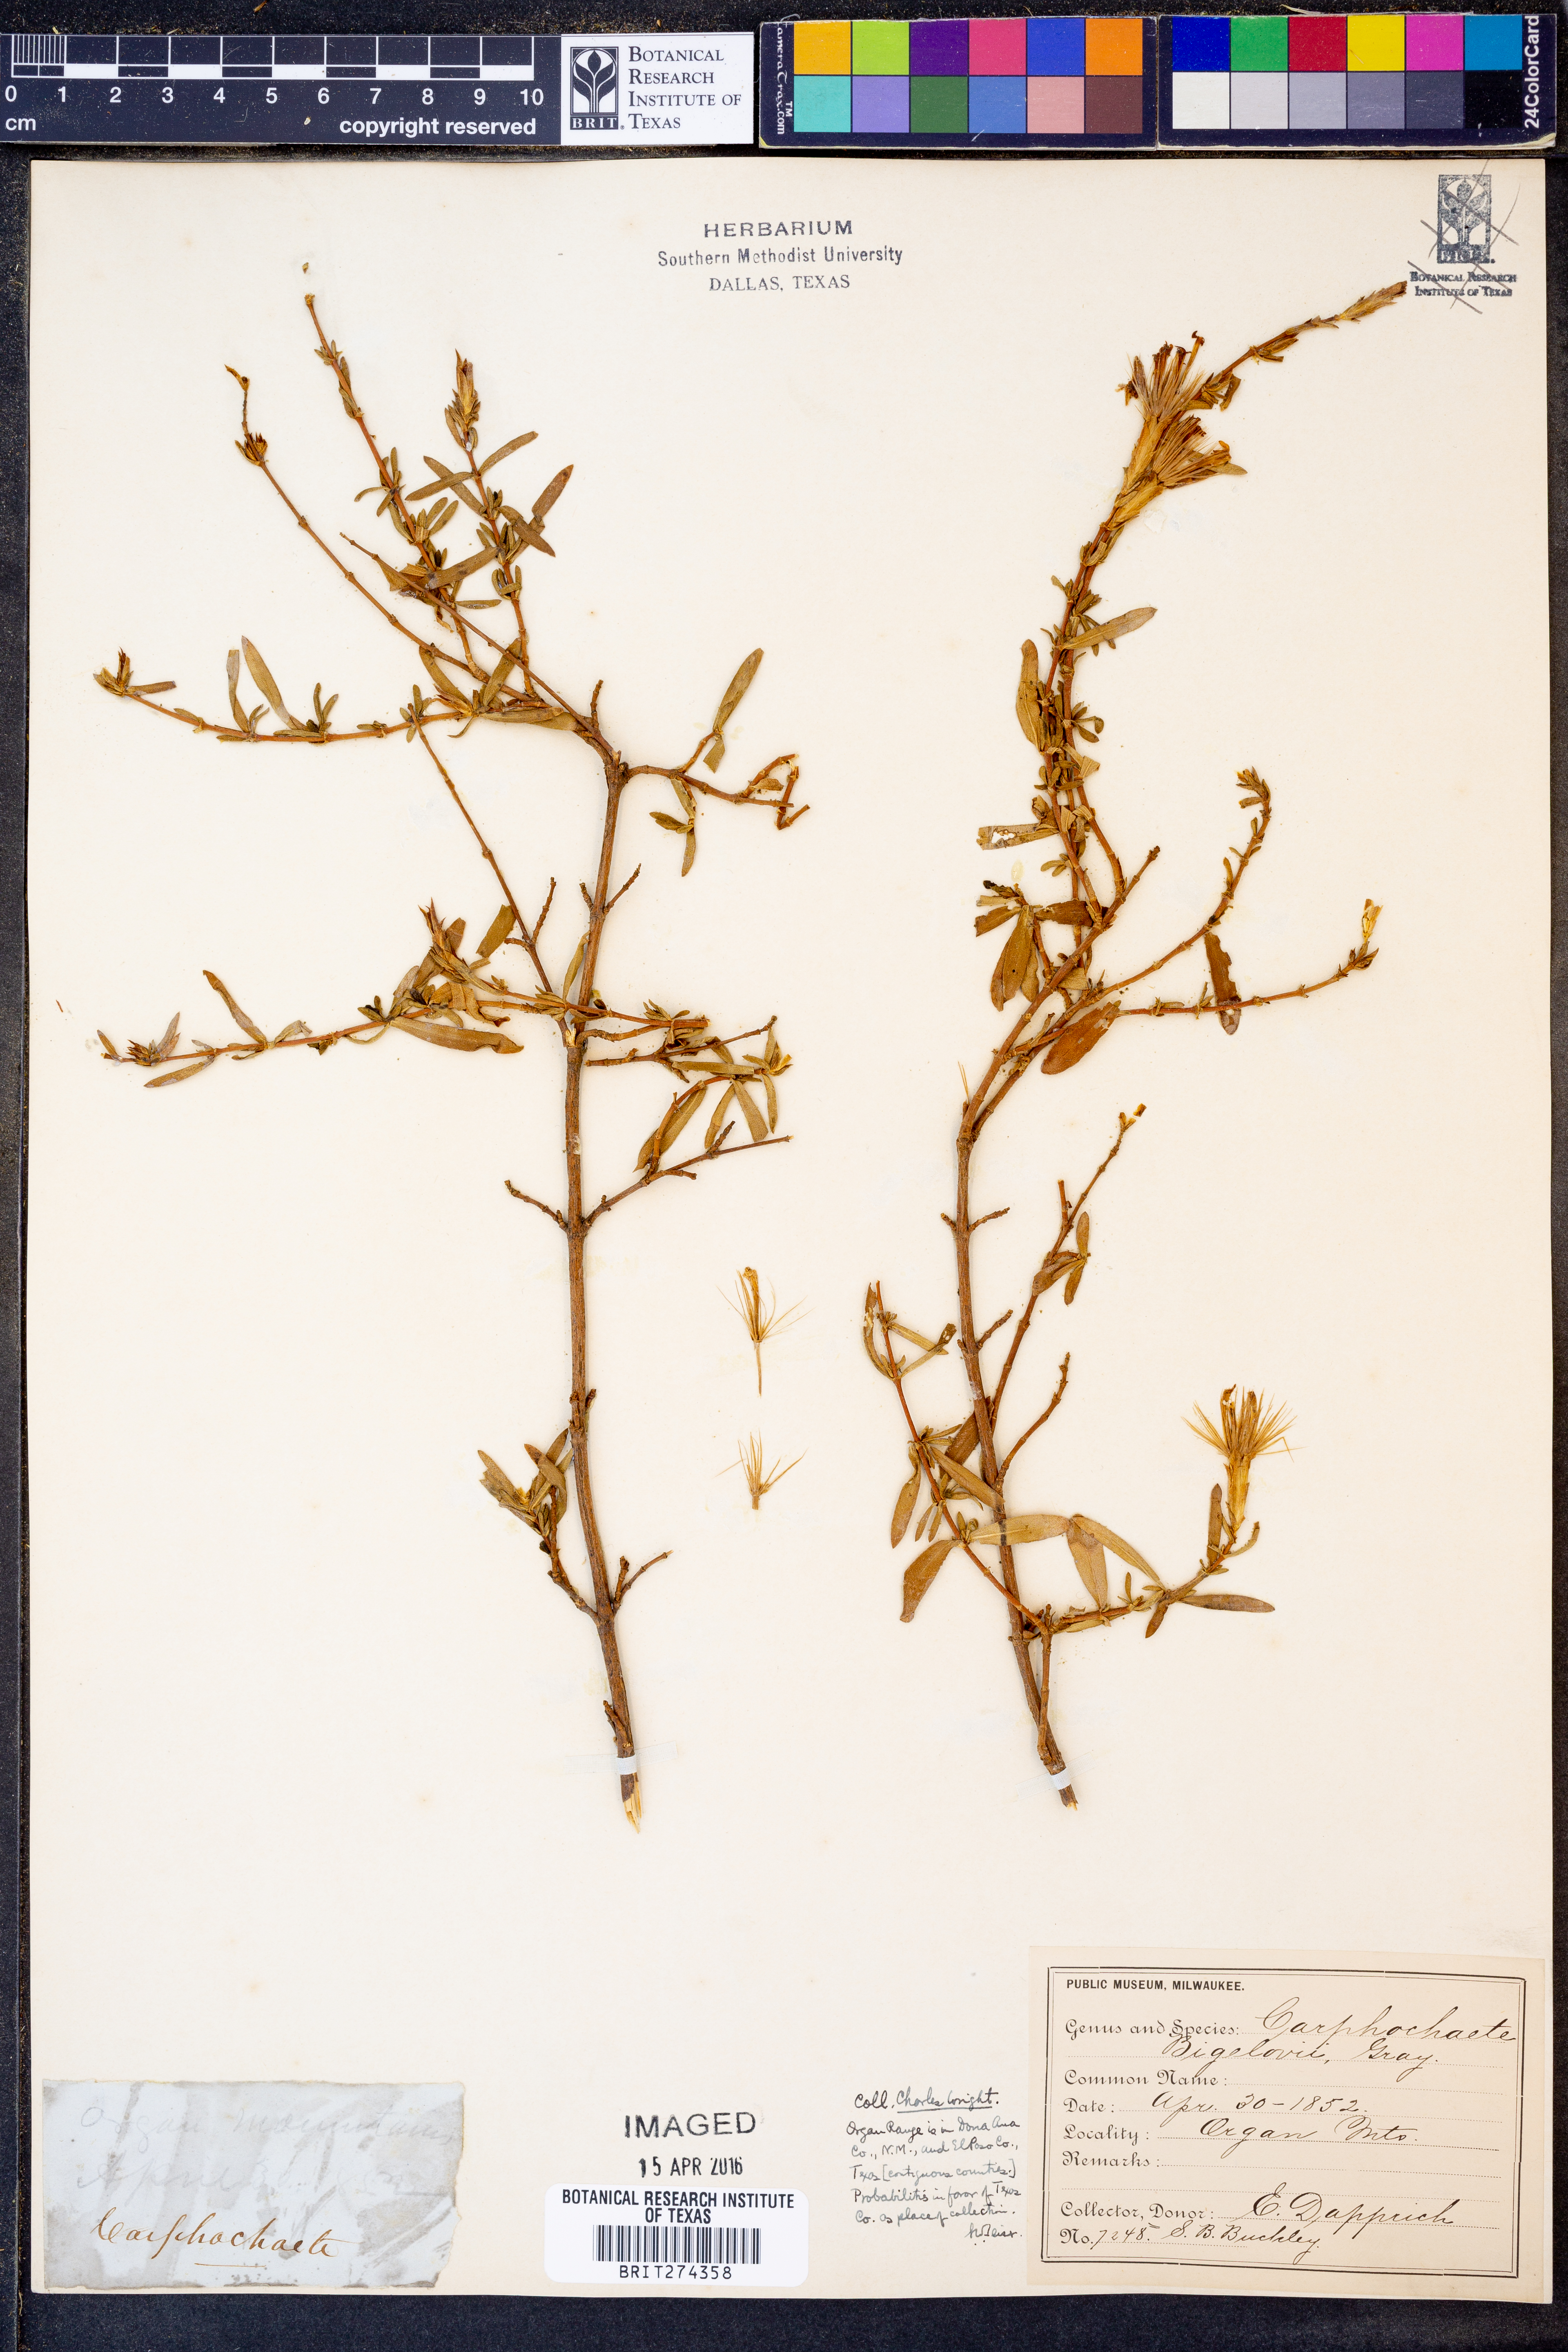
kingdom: Plantae
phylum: Tracheophyta
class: Magnoliopsida
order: Asterales
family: Asteraceae
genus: Carphochaete
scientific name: Carphochaete bigelovii
